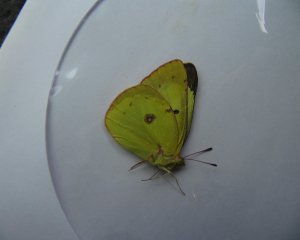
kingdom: Animalia
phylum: Arthropoda
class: Insecta
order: Lepidoptera
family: Pieridae
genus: Colias
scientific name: Colias philodice
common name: Clouded Sulphur
